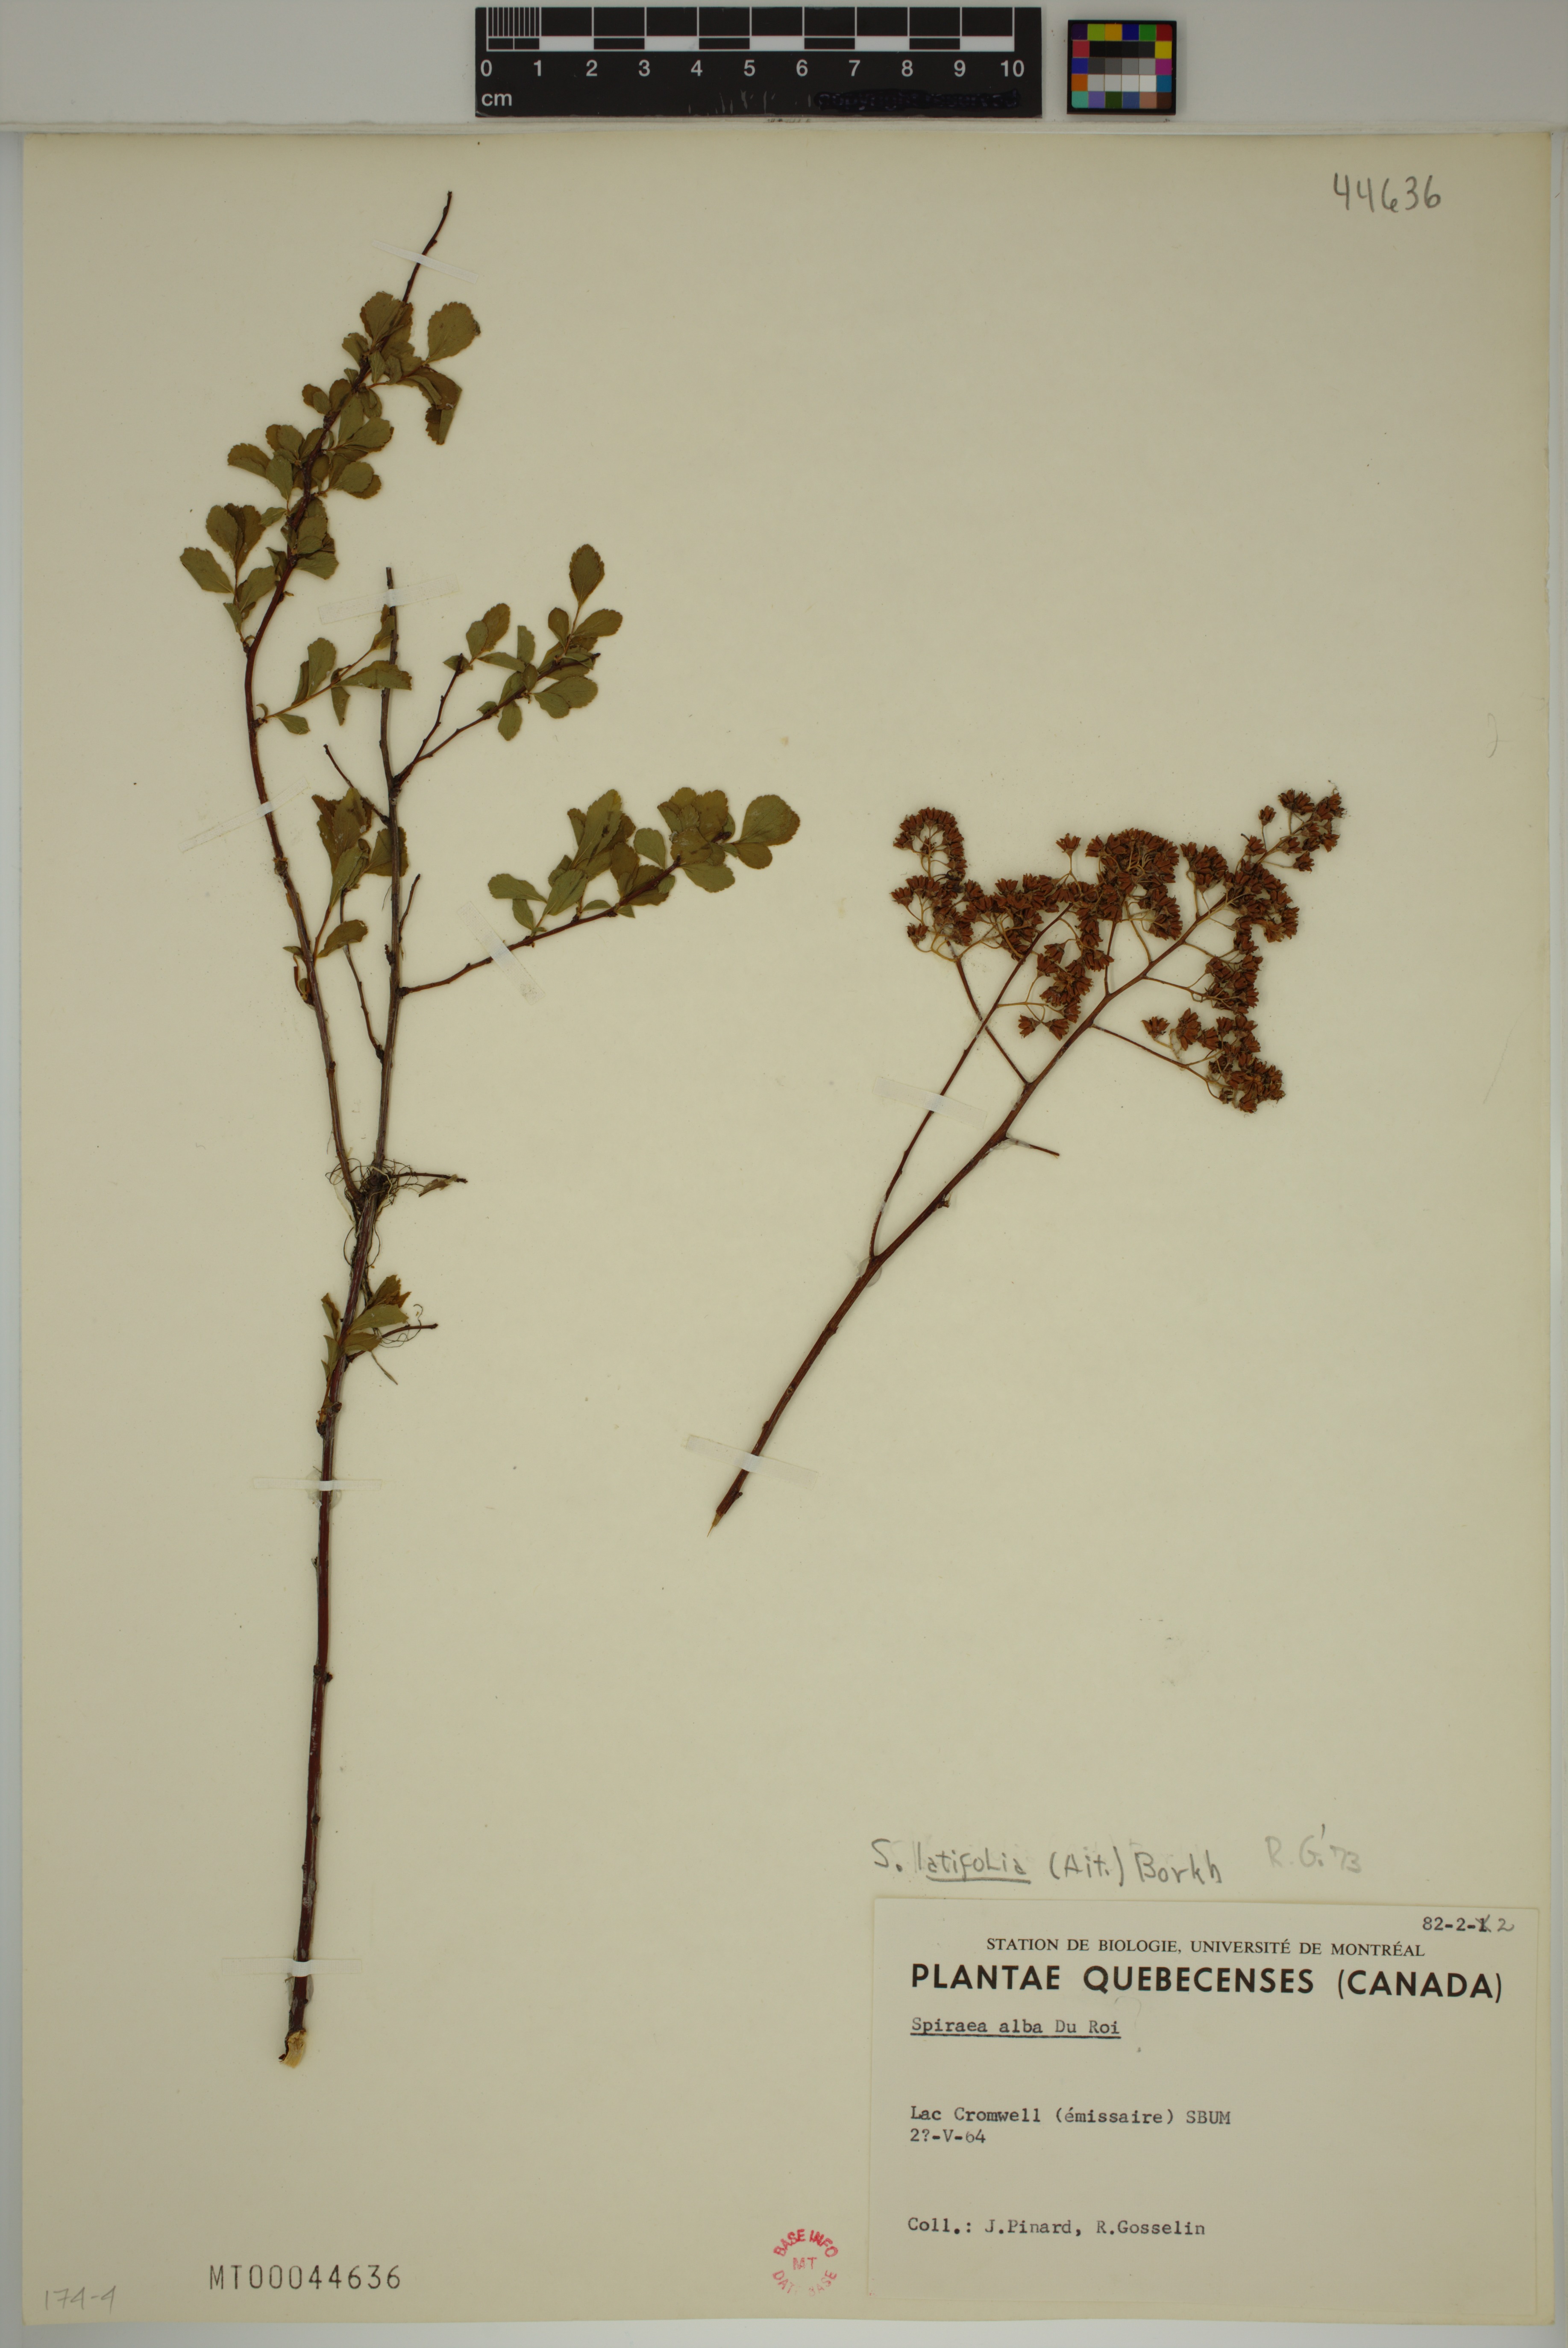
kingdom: Plantae
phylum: Tracheophyta
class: Magnoliopsida
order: Rosales
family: Rosaceae
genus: Spiraea
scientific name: Spiraea alba
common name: Pale bridewort
